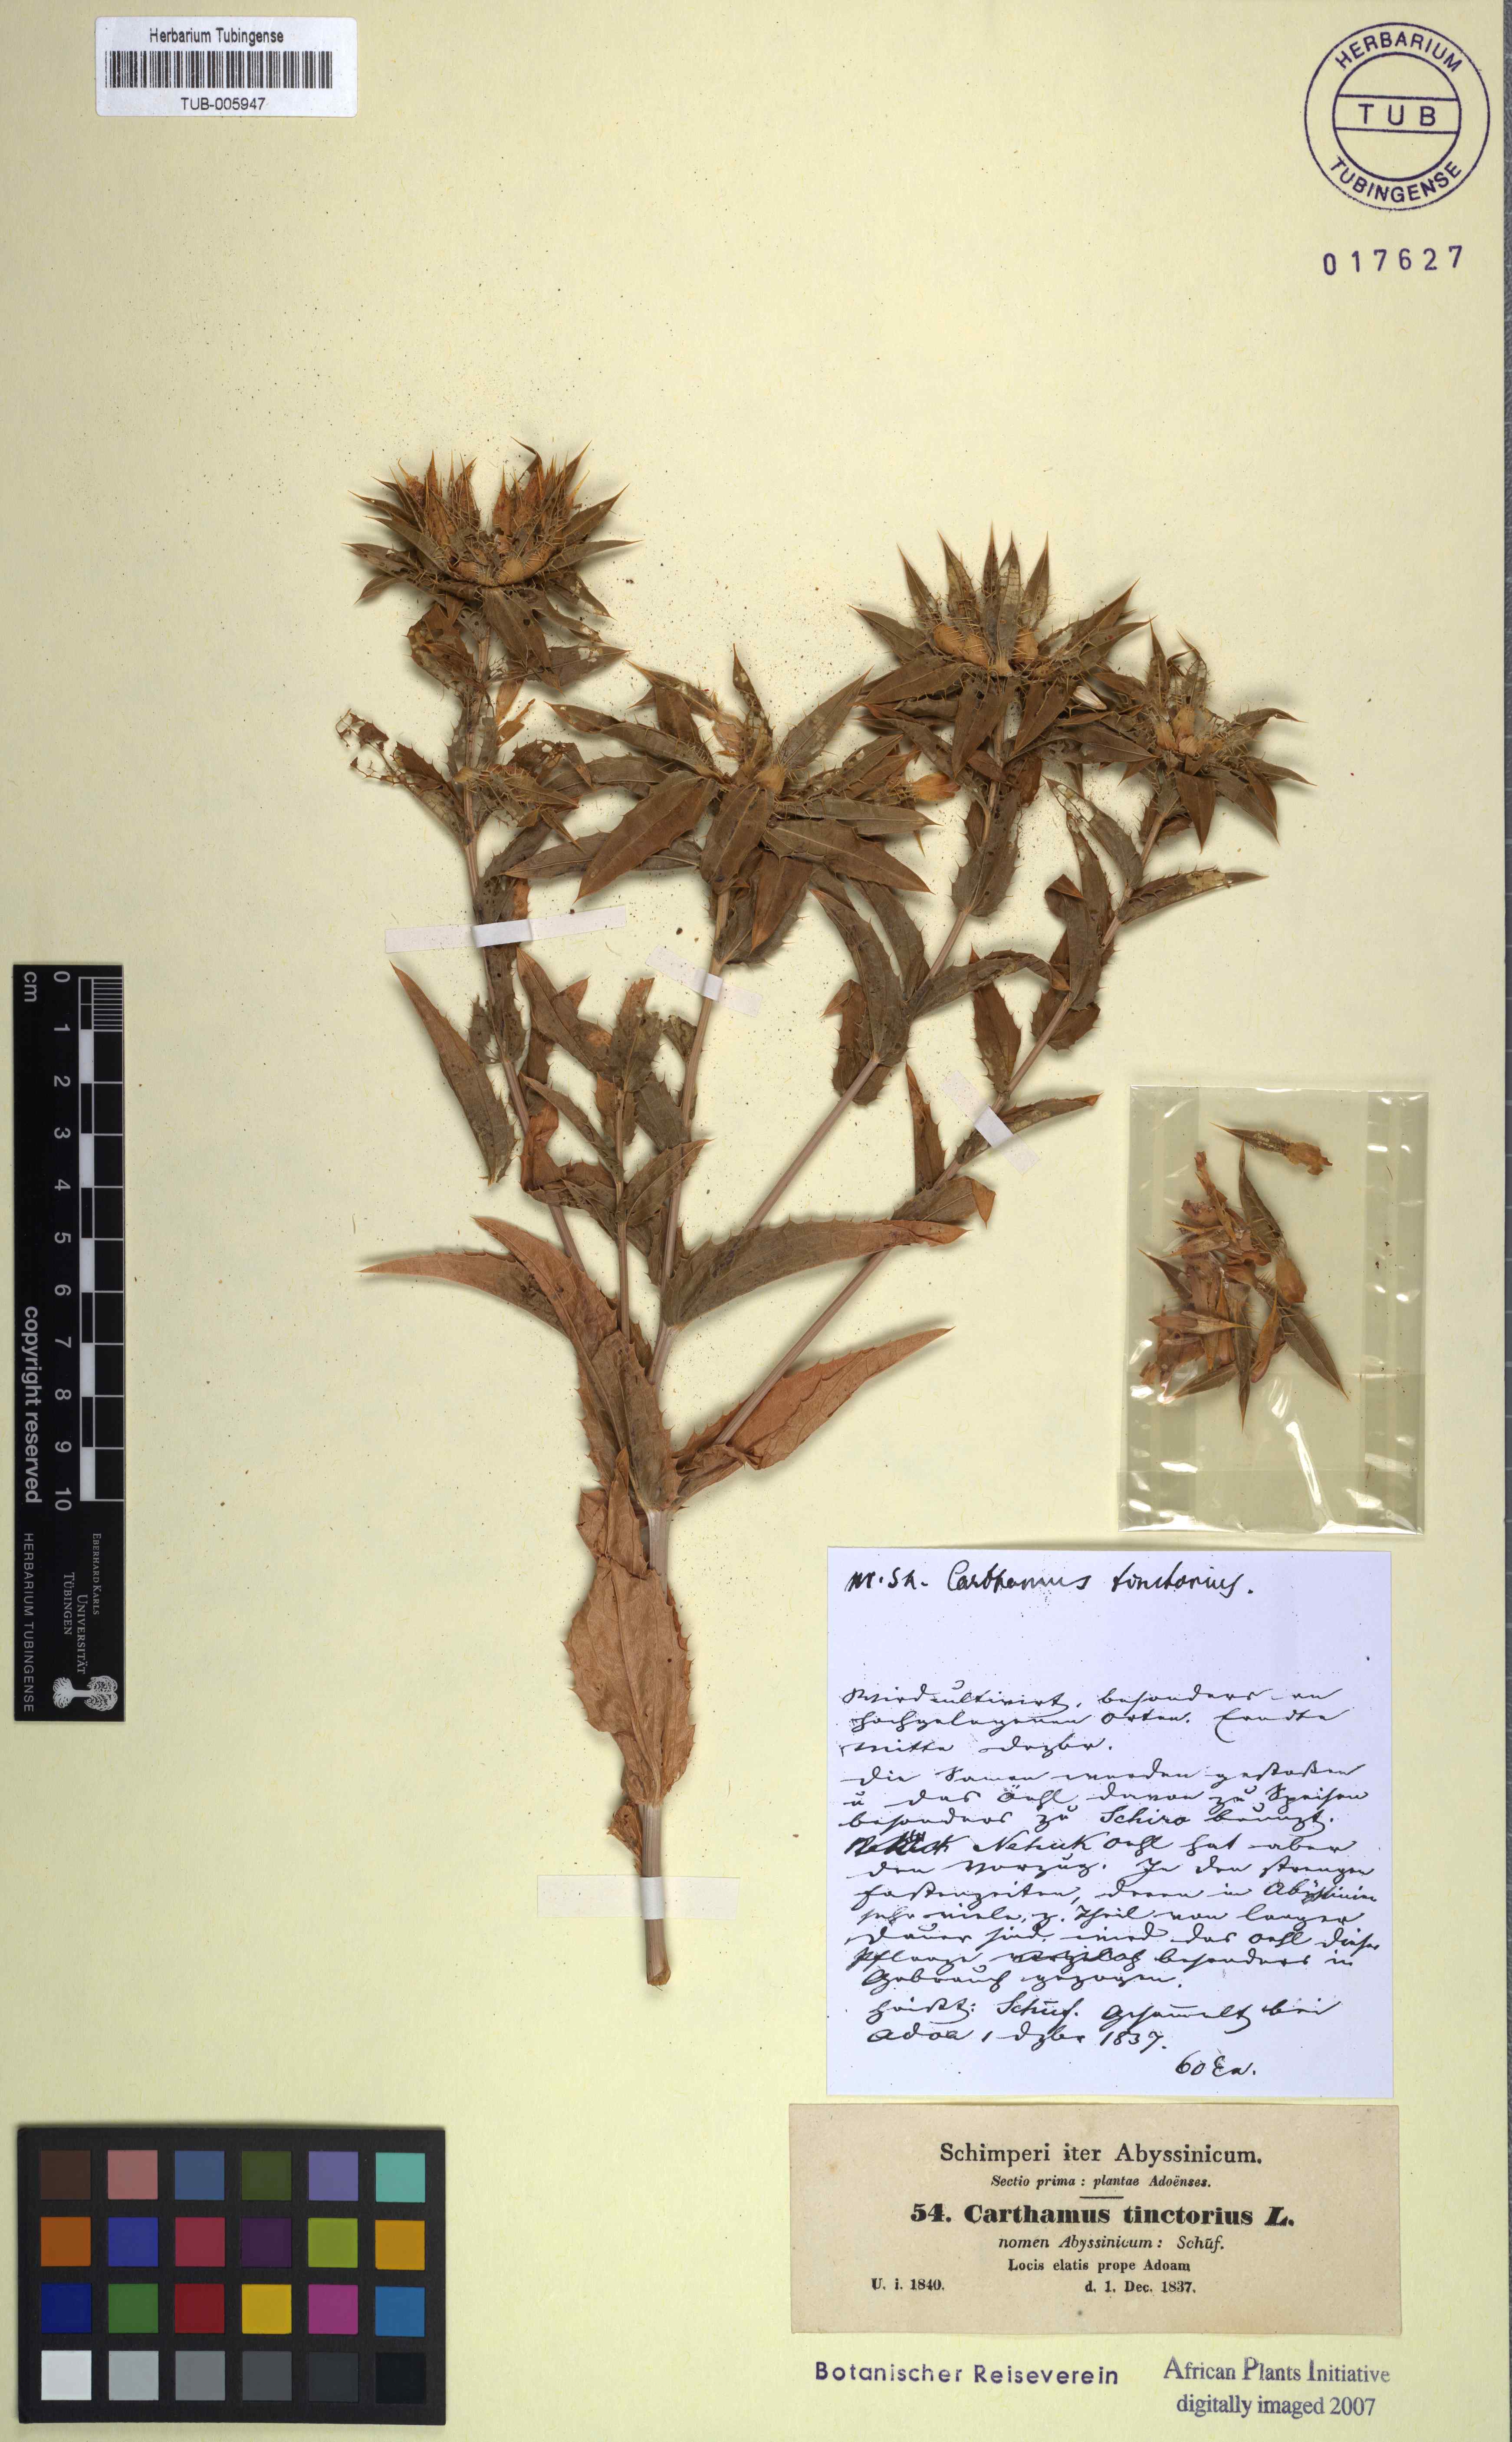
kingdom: Plantae
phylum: Tracheophyta
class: Magnoliopsida
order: Asterales
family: Asteraceae
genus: Carthamus
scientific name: Carthamus tinctorius
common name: Safflower
